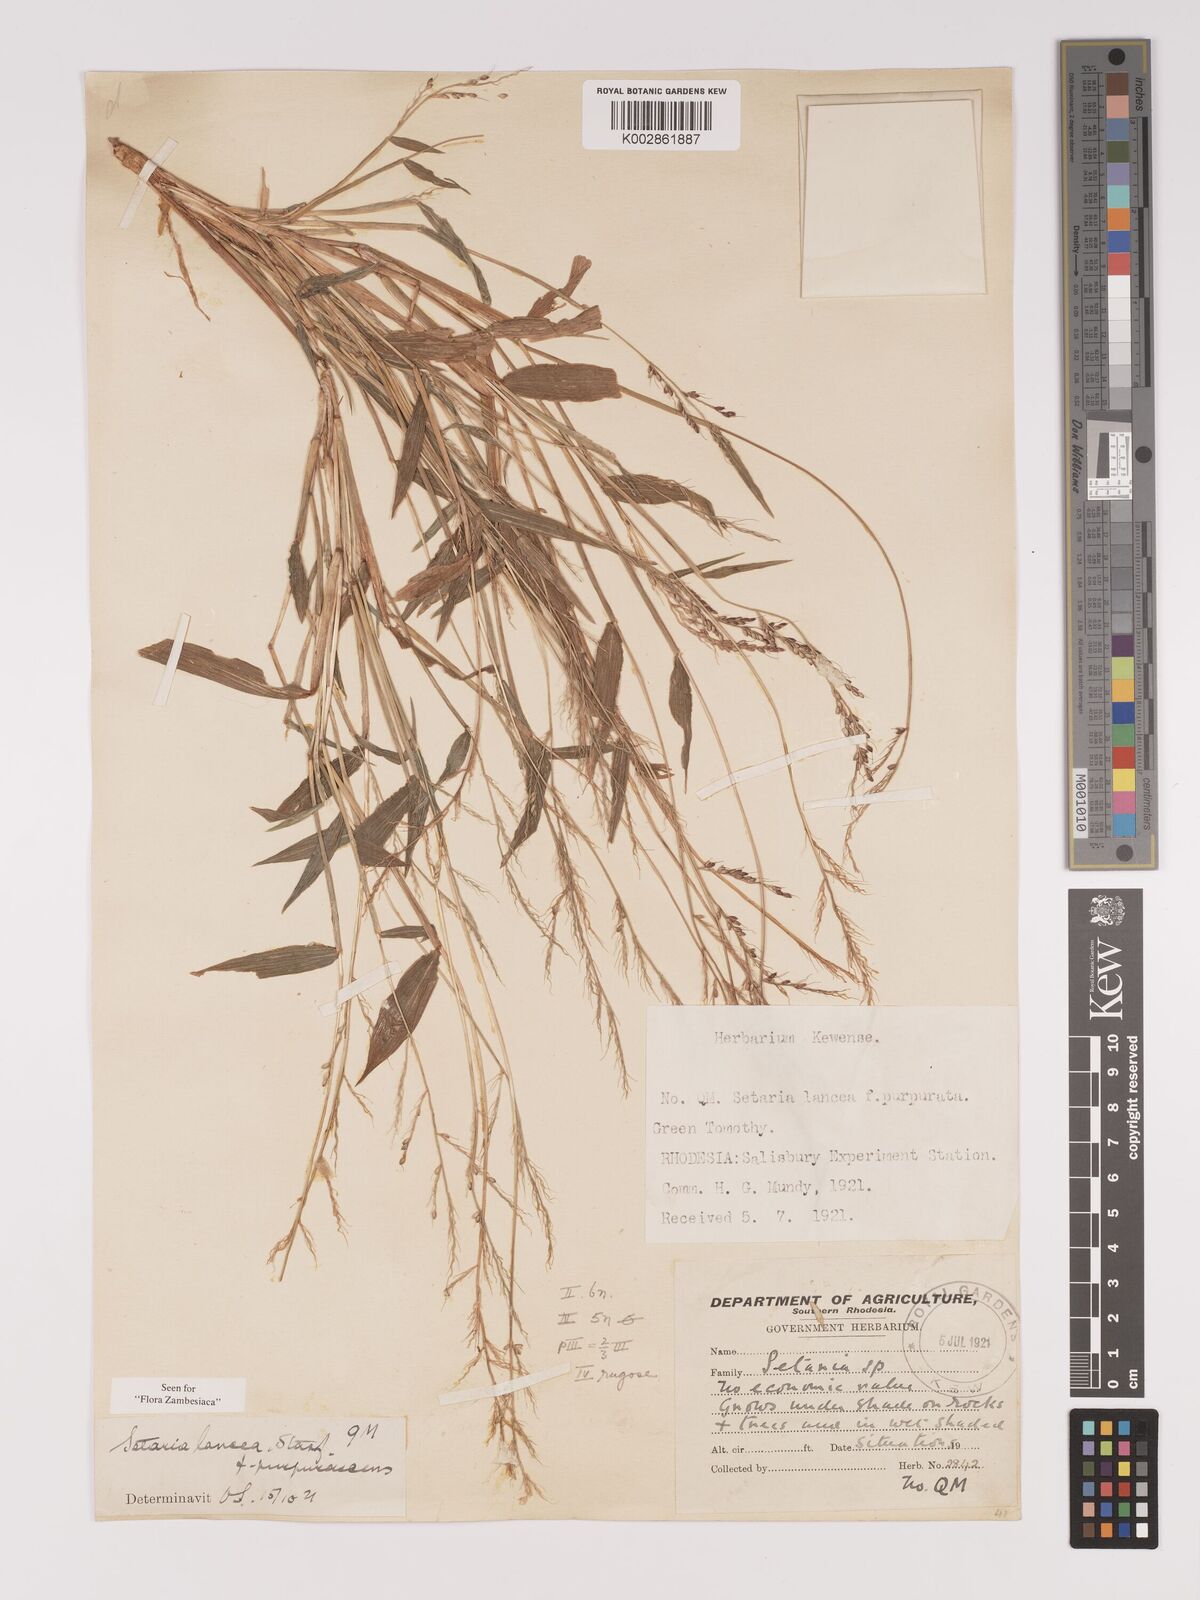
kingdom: Plantae
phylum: Tracheophyta
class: Liliopsida
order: Poales
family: Poaceae
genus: Setaria
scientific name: Setaria homonyma
